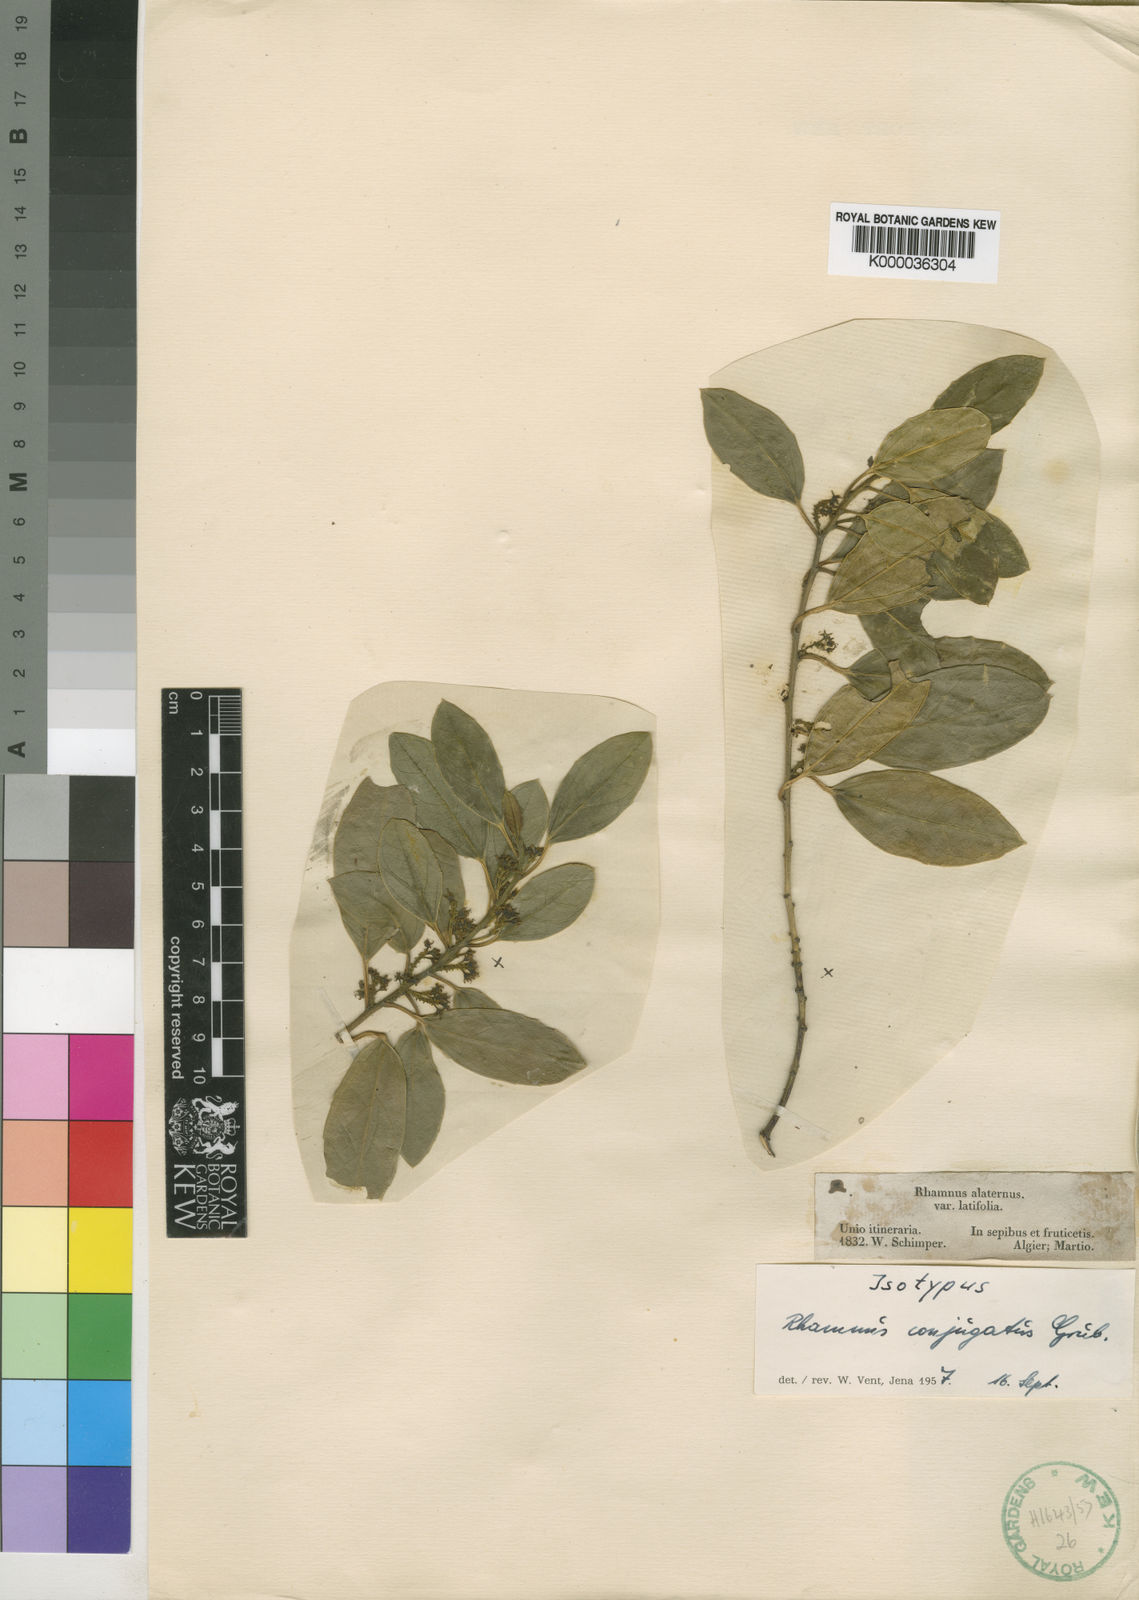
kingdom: Plantae
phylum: Tracheophyta
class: Magnoliopsida
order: Rosales
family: Rhamnaceae
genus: Rhamnus
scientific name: Rhamnus
